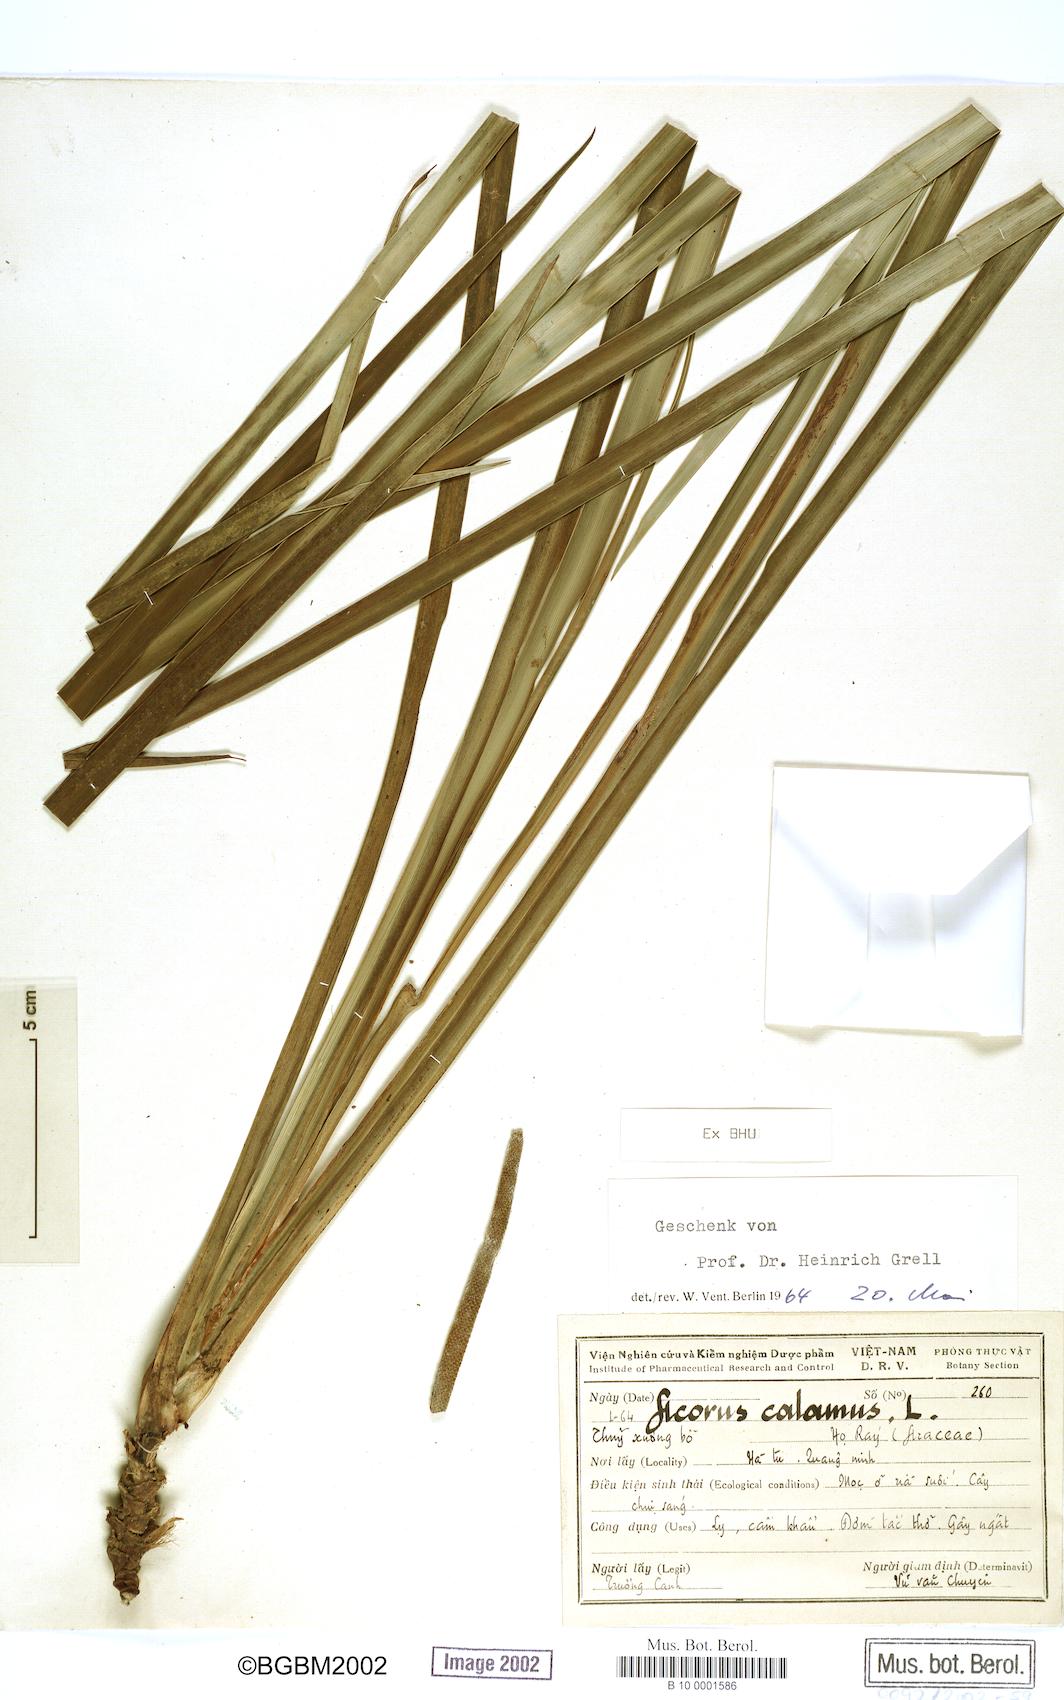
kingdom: Plantae
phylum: Tracheophyta
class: Liliopsida
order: Acorales
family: Acoraceae
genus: Acorus
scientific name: Acorus calamus
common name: Sweet-flag
